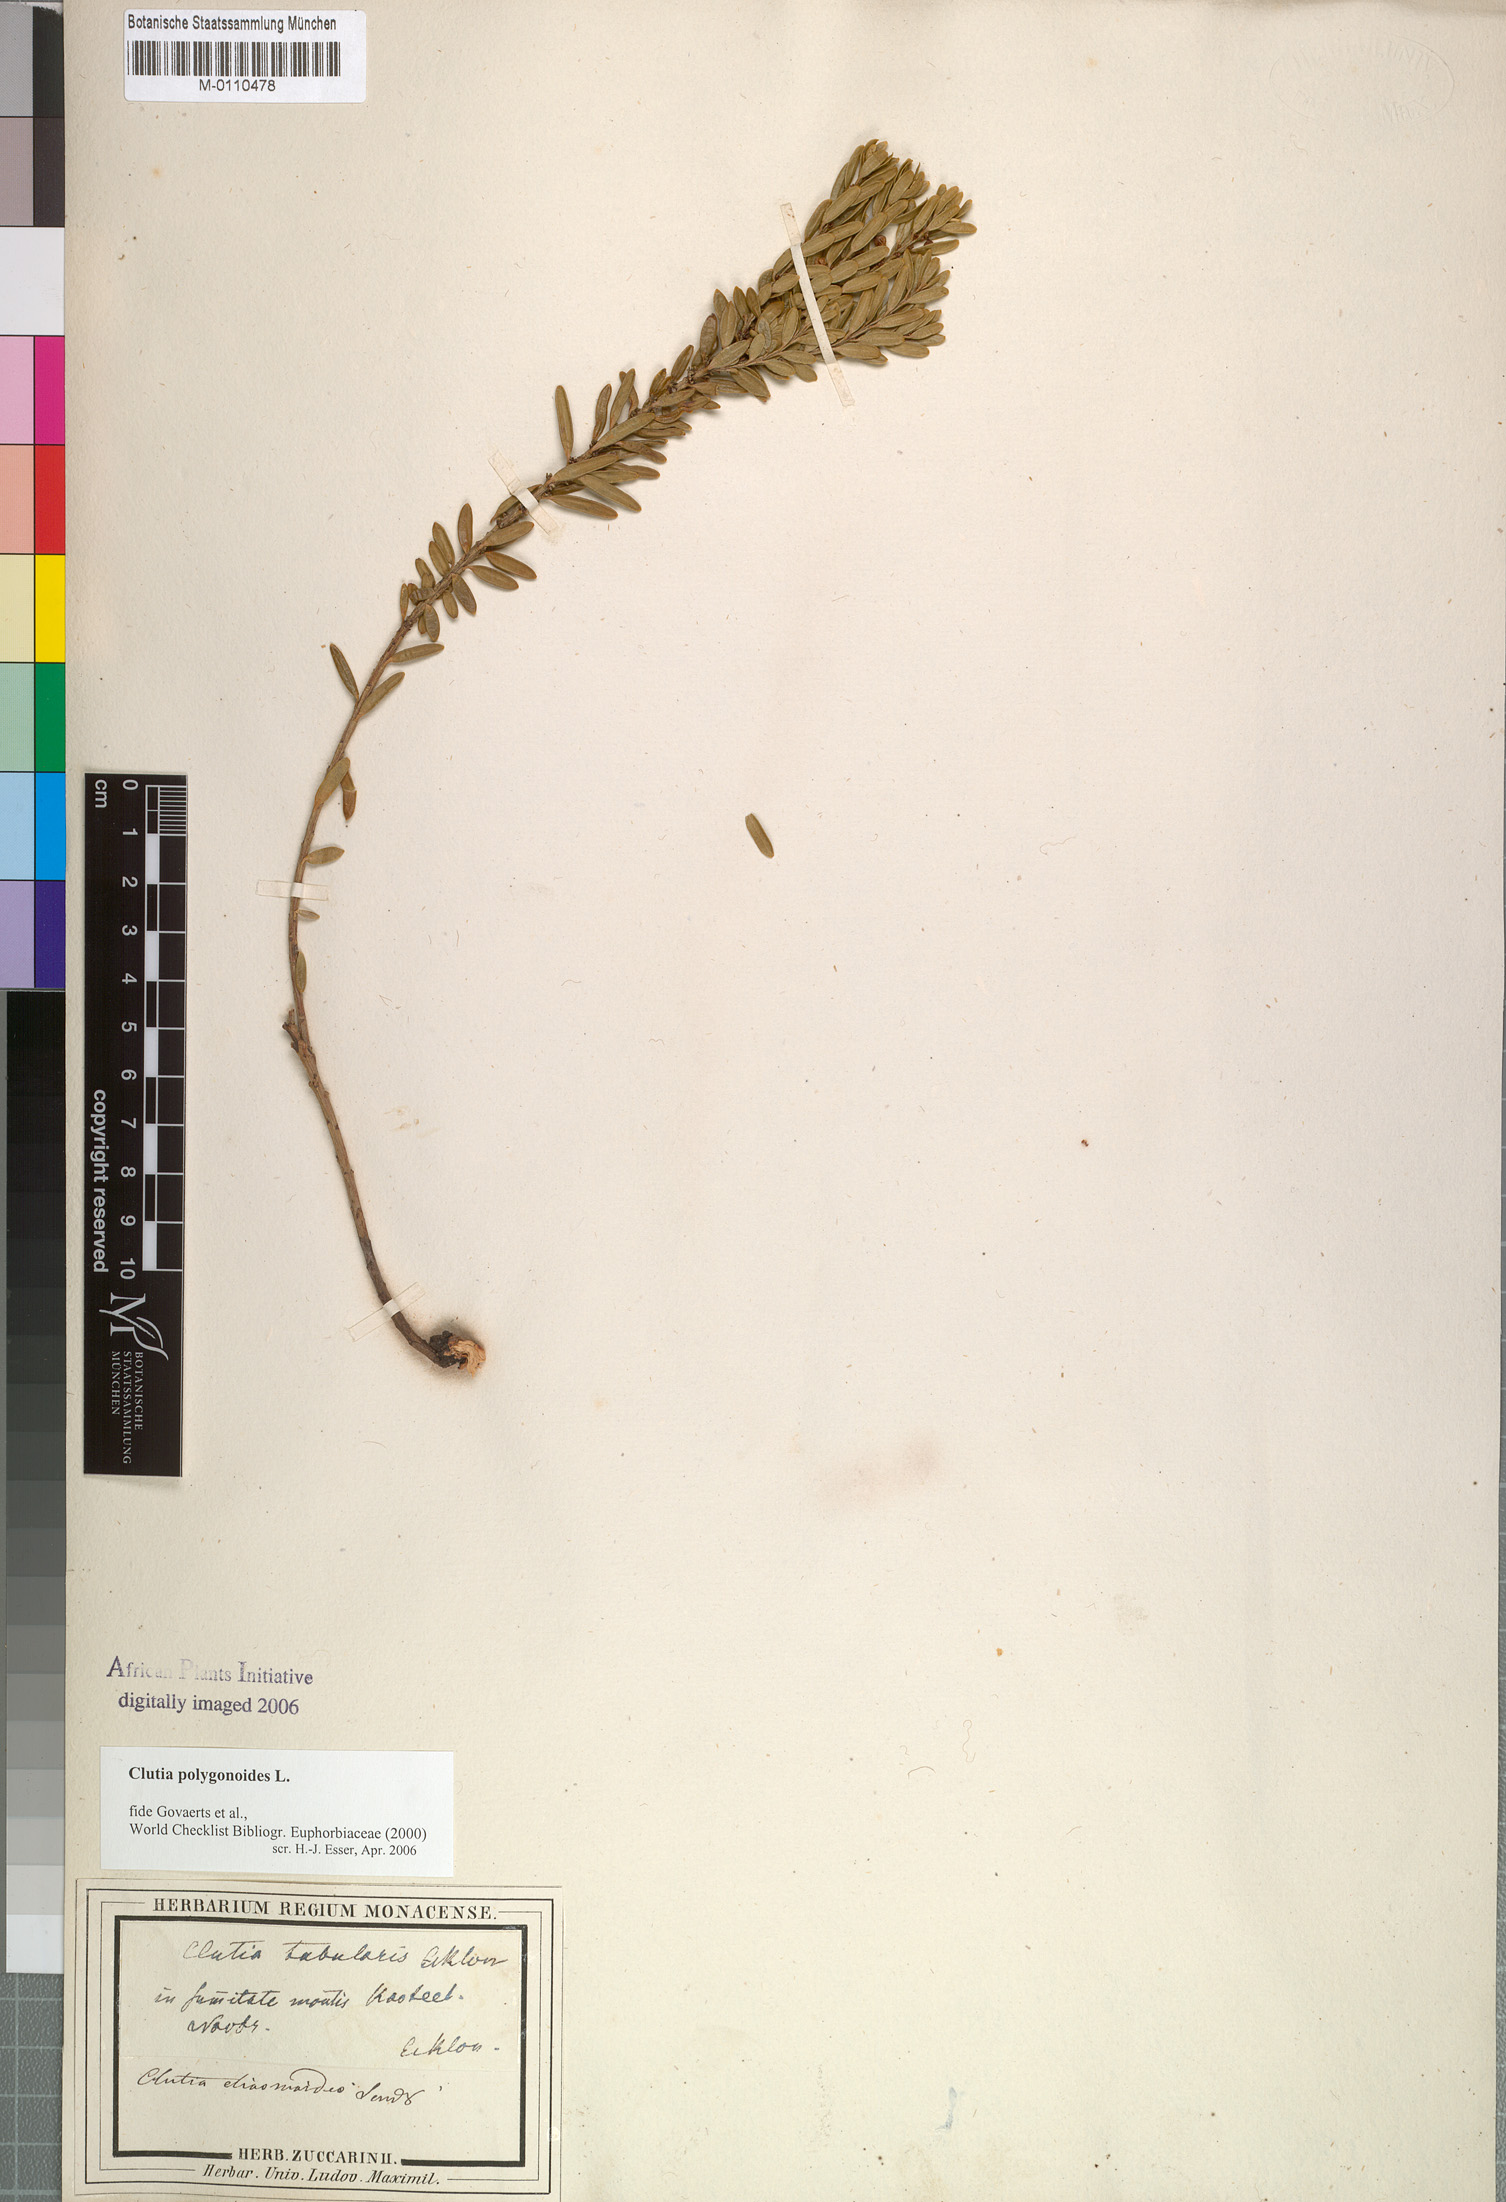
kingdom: Plantae
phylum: Tracheophyta
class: Magnoliopsida
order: Malpighiales
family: Peraceae
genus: Clutia
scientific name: Clutia polygonoides
